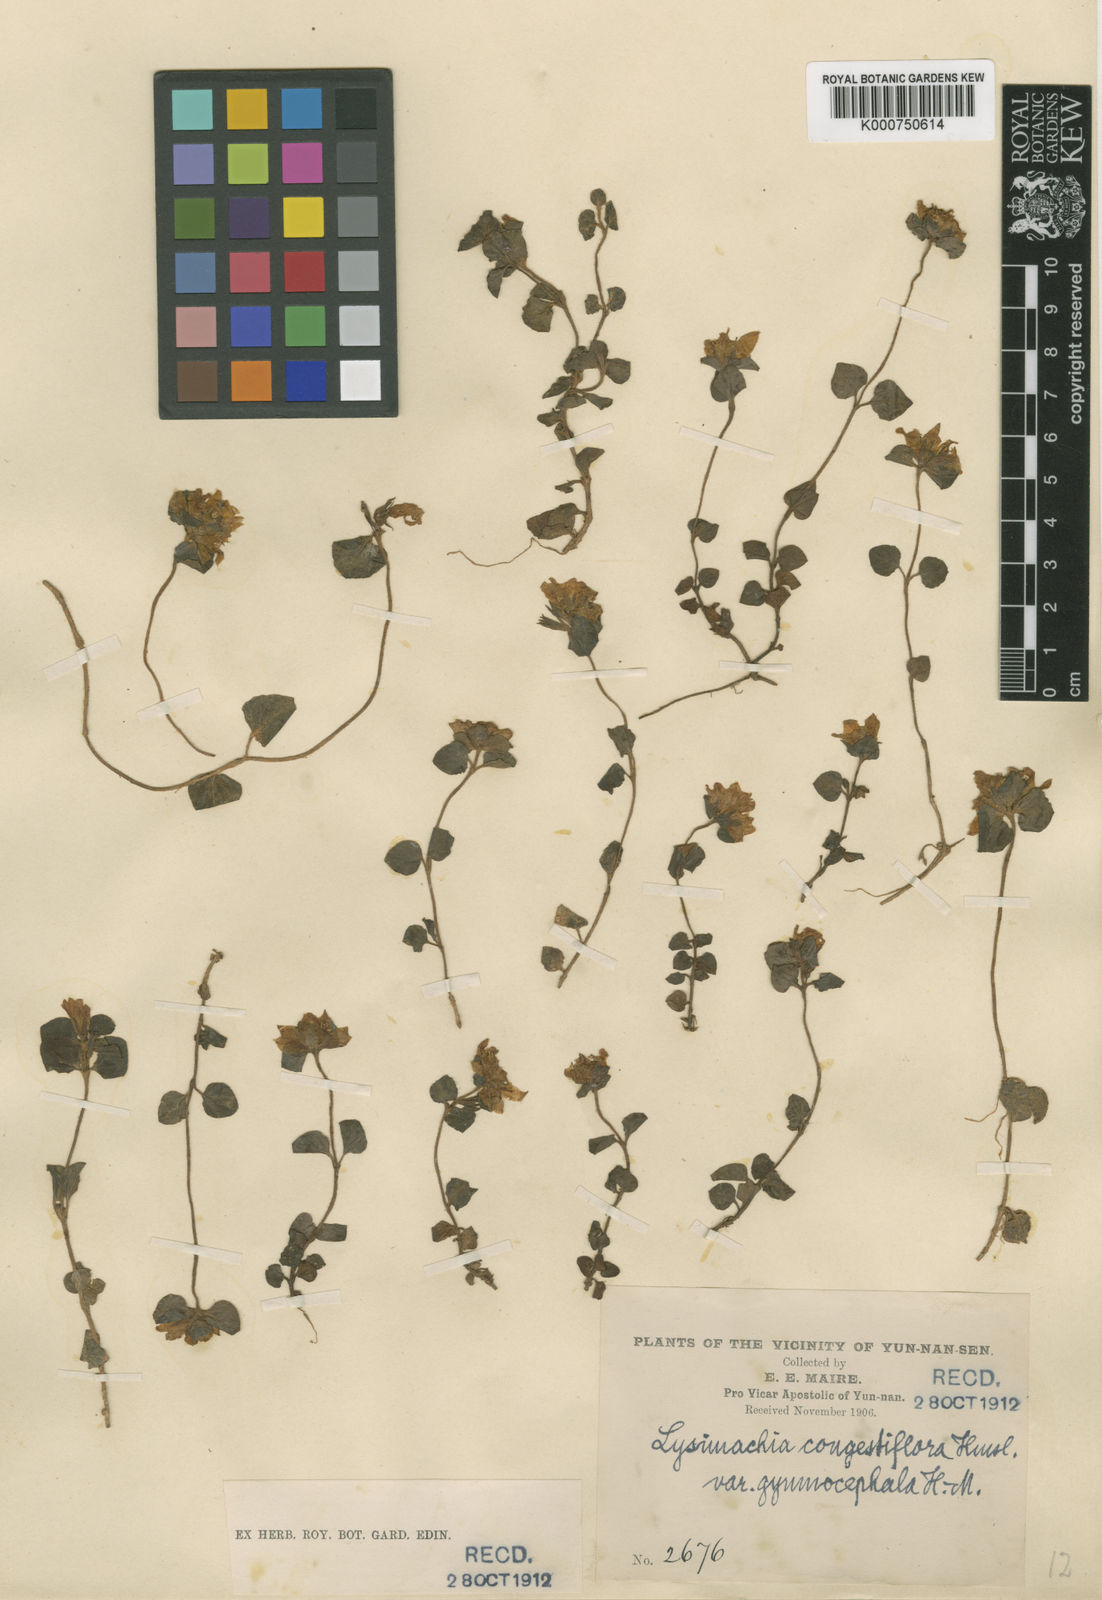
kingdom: Plantae
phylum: Tracheophyta
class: Magnoliopsida
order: Ericales
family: Primulaceae
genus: Lysimachia
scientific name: Lysimachia congestiflora
